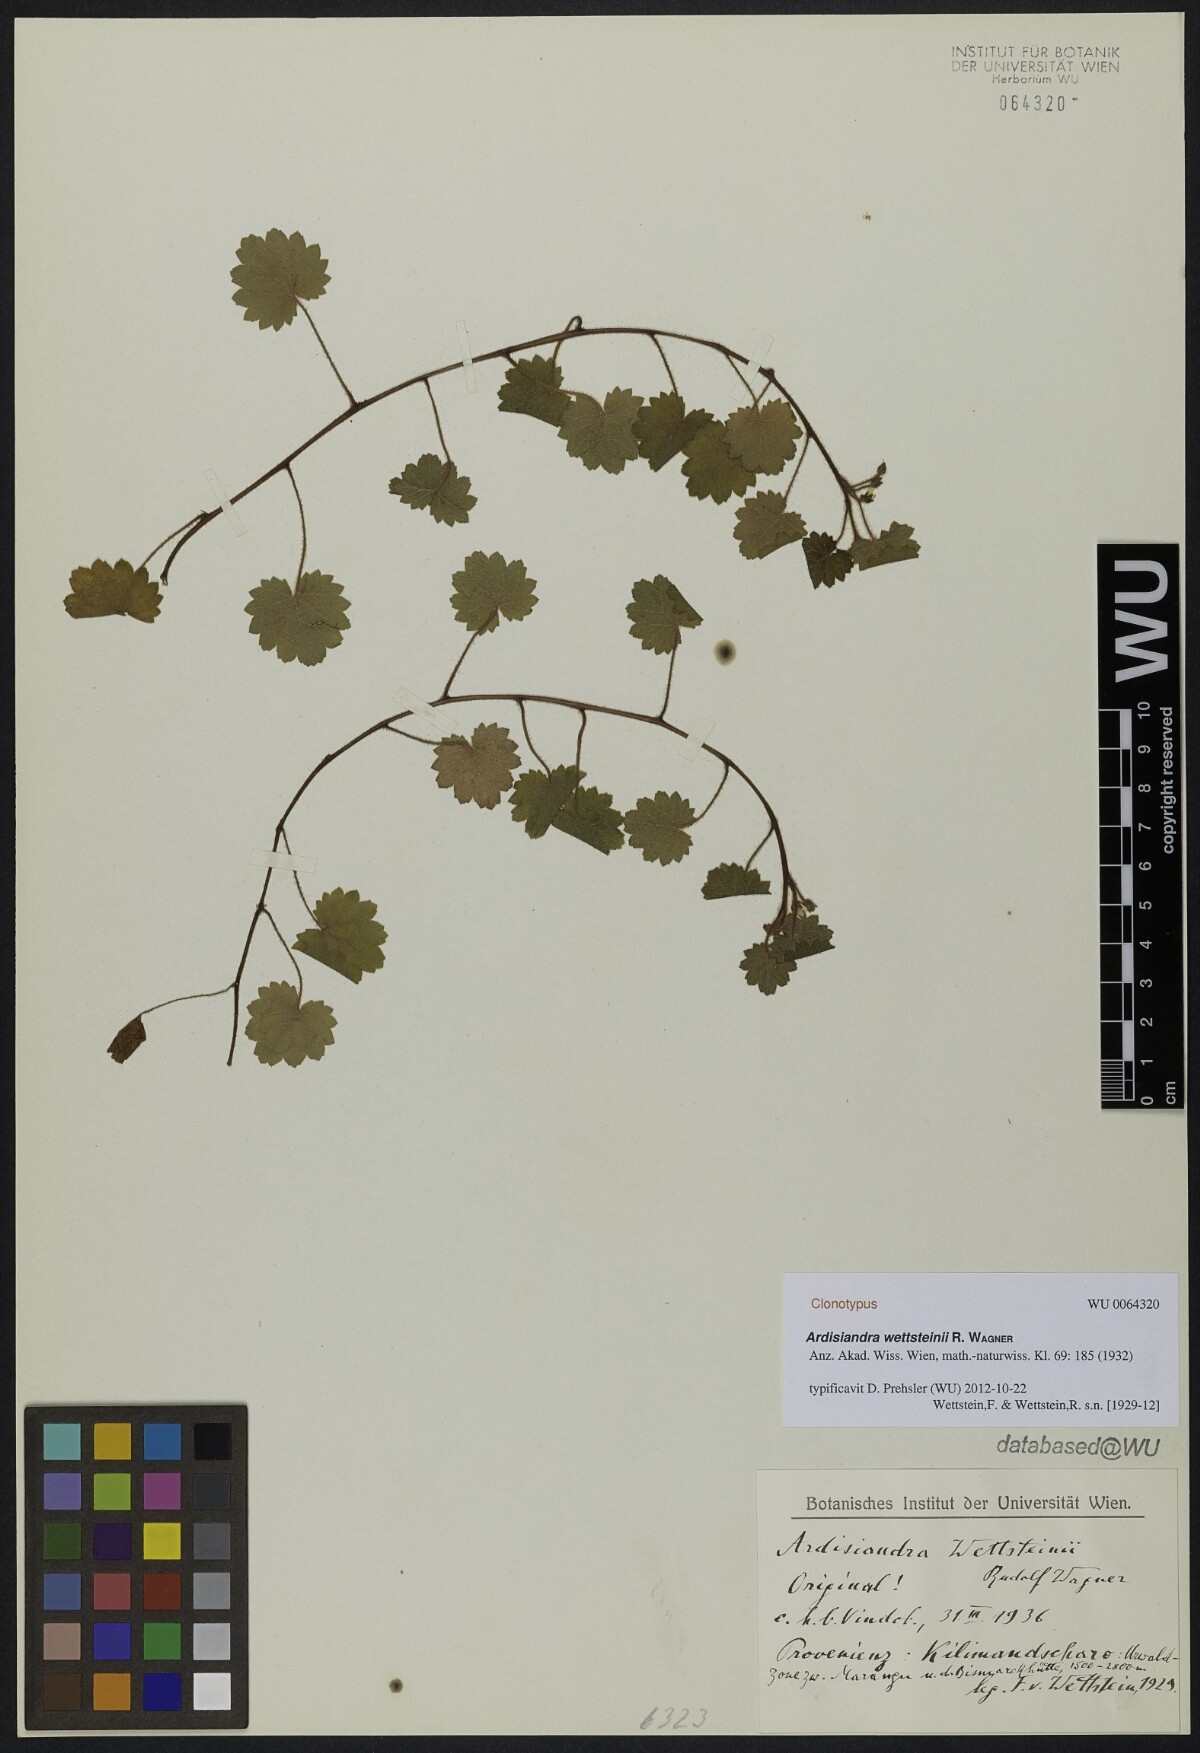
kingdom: Plantae
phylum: Tracheophyta
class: Magnoliopsida
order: Ericales
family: Primulaceae
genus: Ardisiandra
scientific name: Ardisiandra wettsteinii
